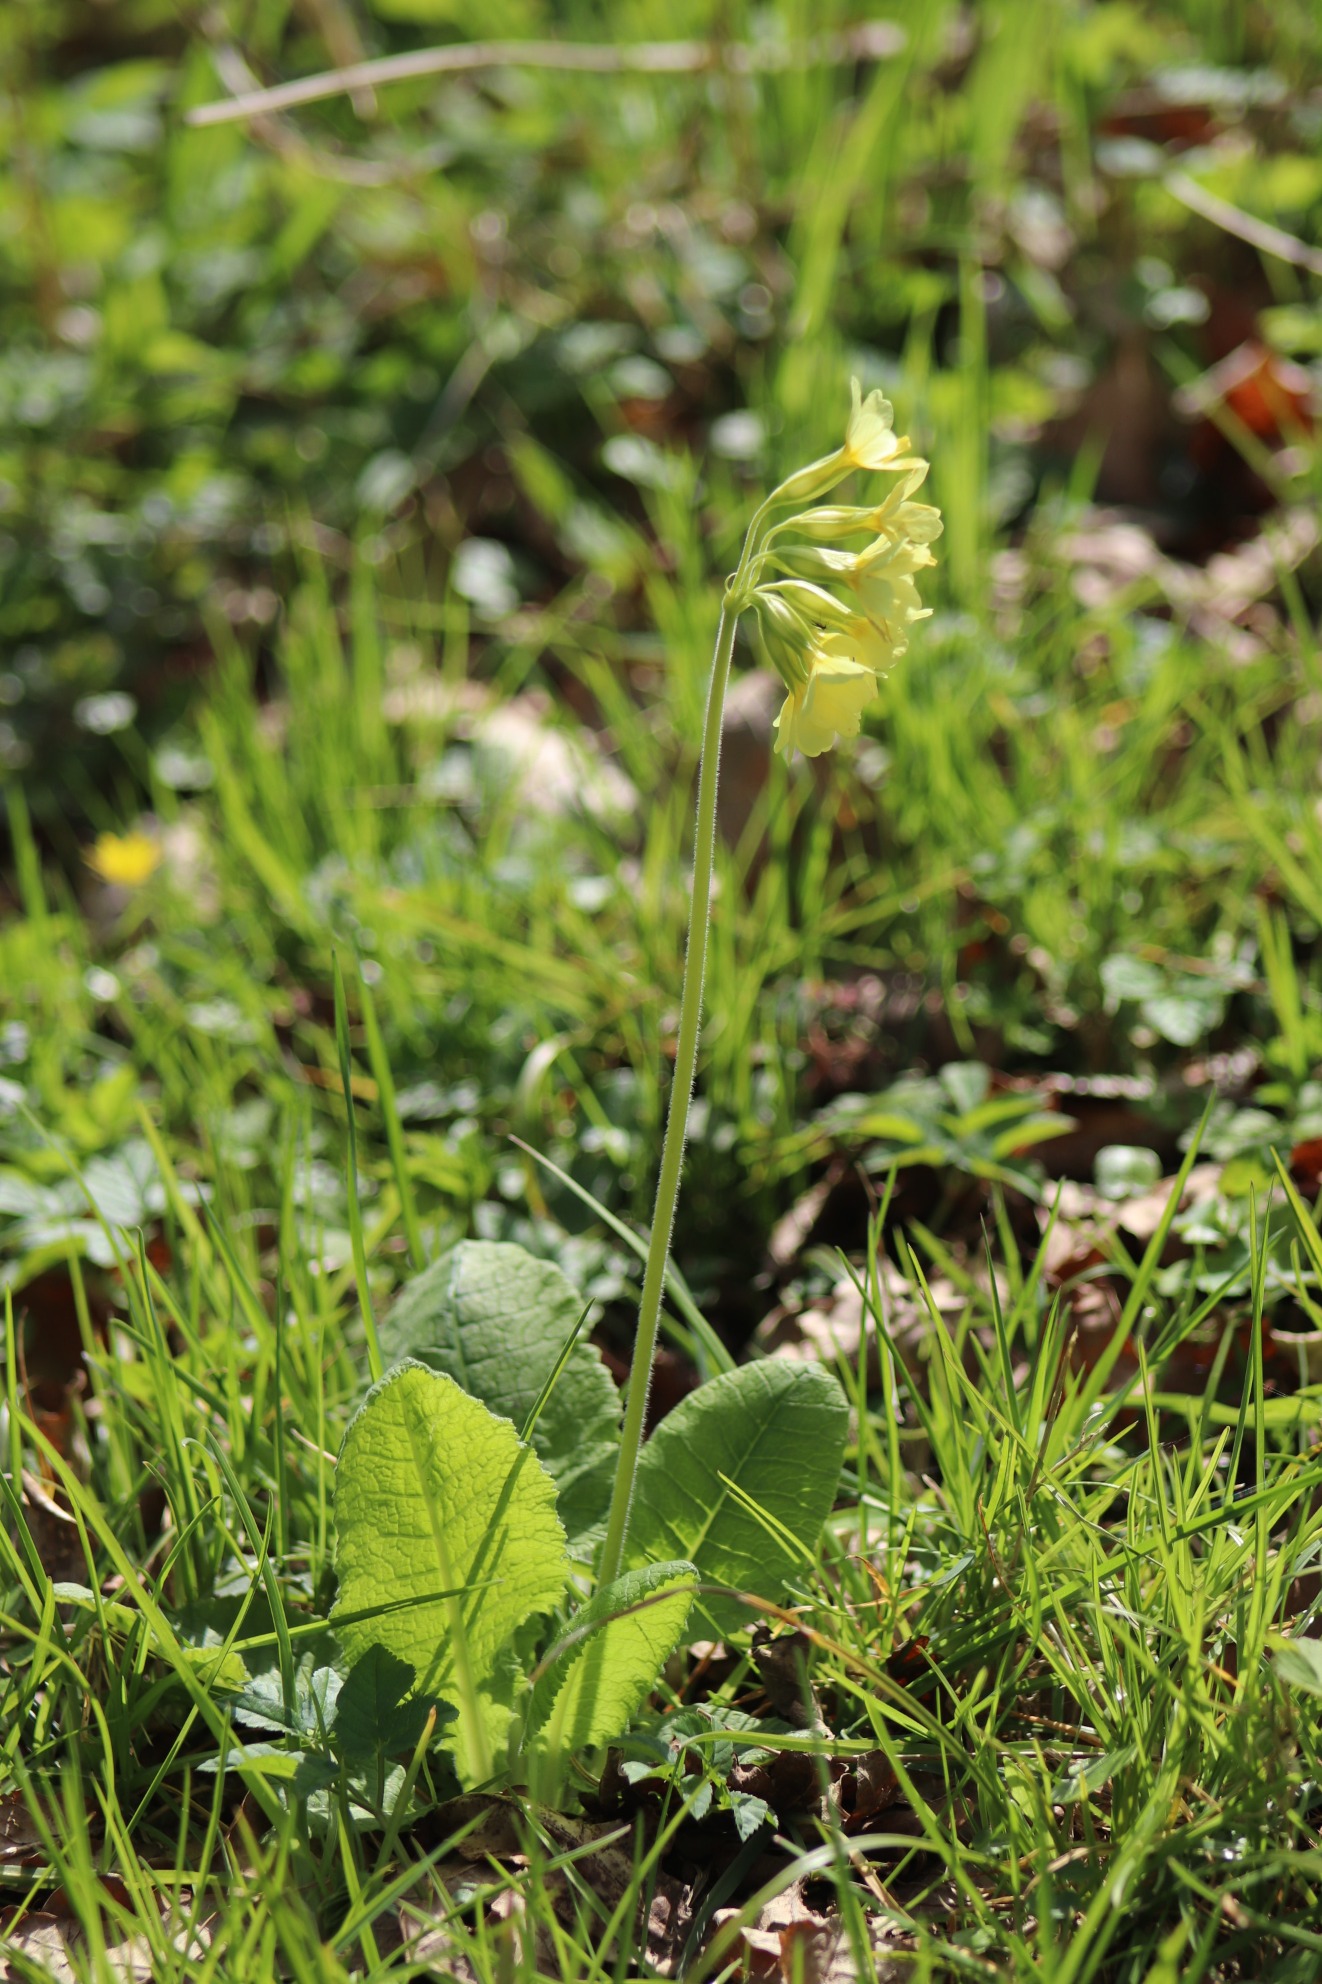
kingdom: Plantae
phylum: Tracheophyta
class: Magnoliopsida
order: Ericales
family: Primulaceae
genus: Primula
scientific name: Primula elatior
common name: Fladkravet kodriver
